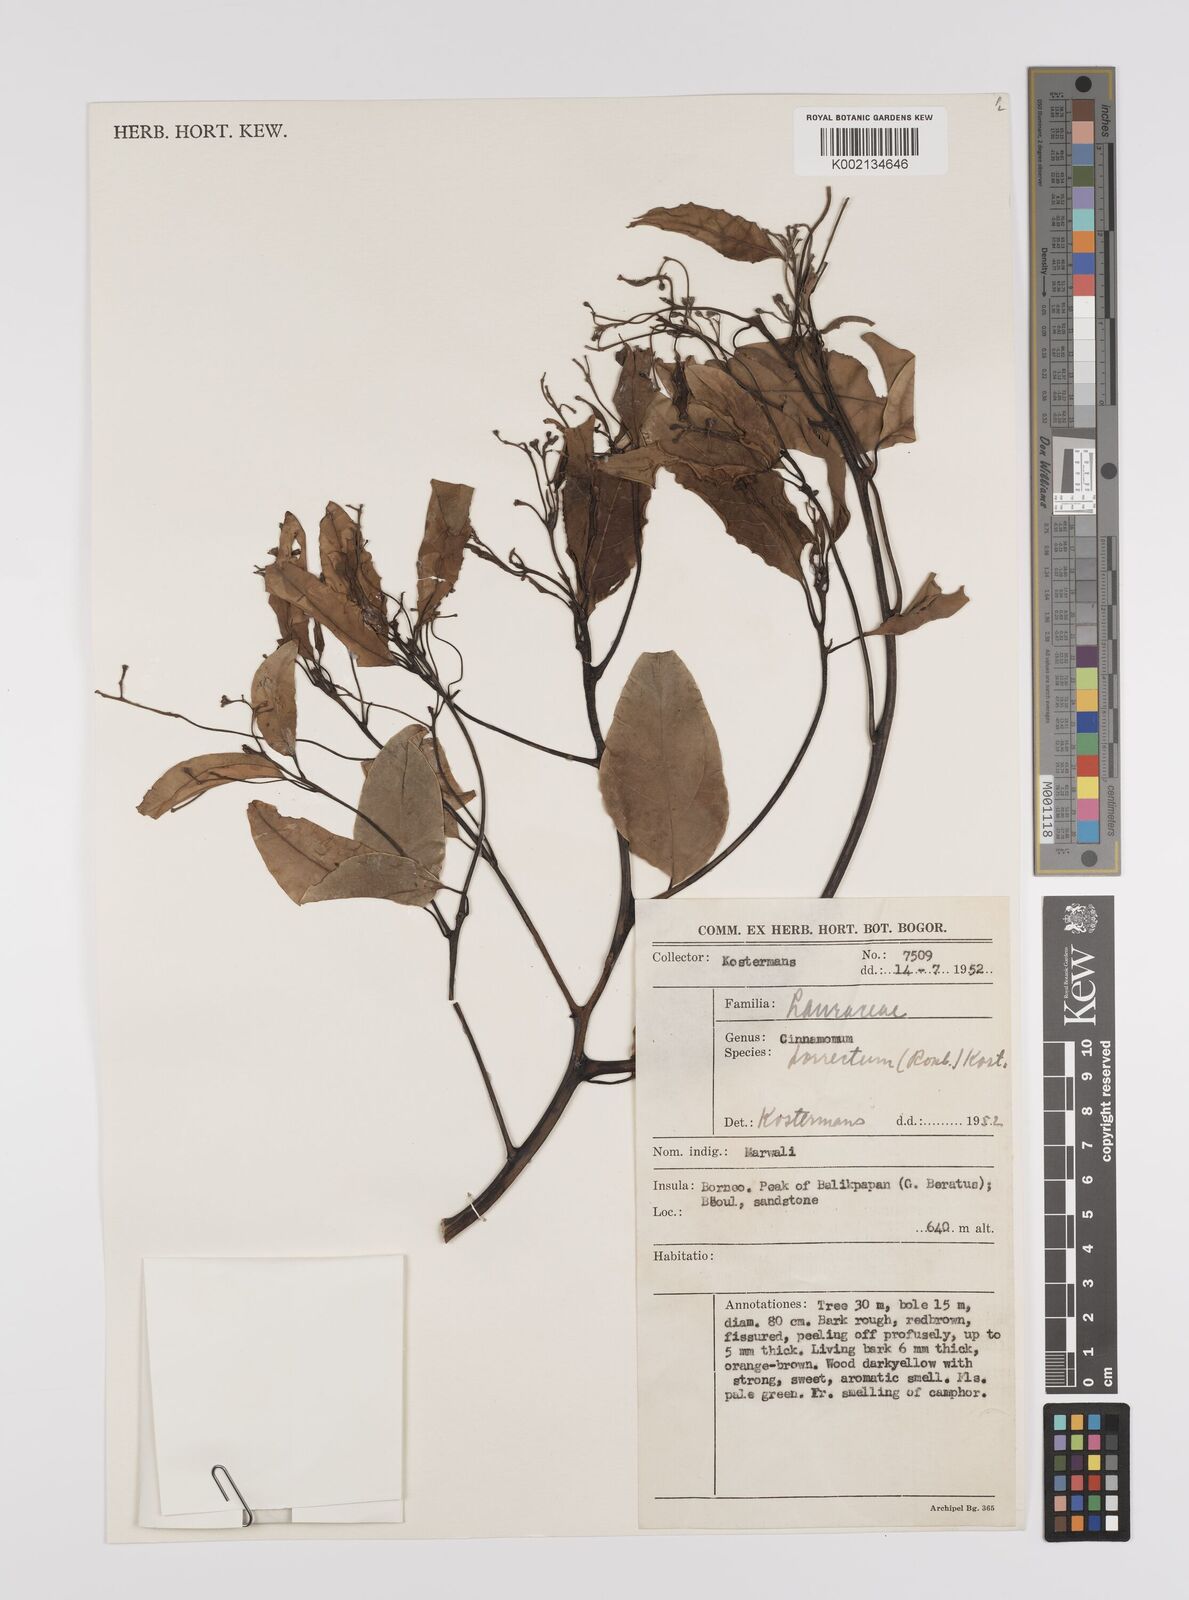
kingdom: Plantae
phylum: Tracheophyta
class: Magnoliopsida
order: Laurales
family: Lauraceae
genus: Cinnamomum
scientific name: Cinnamomum parthenoxylon
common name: Martaban camphor wood
